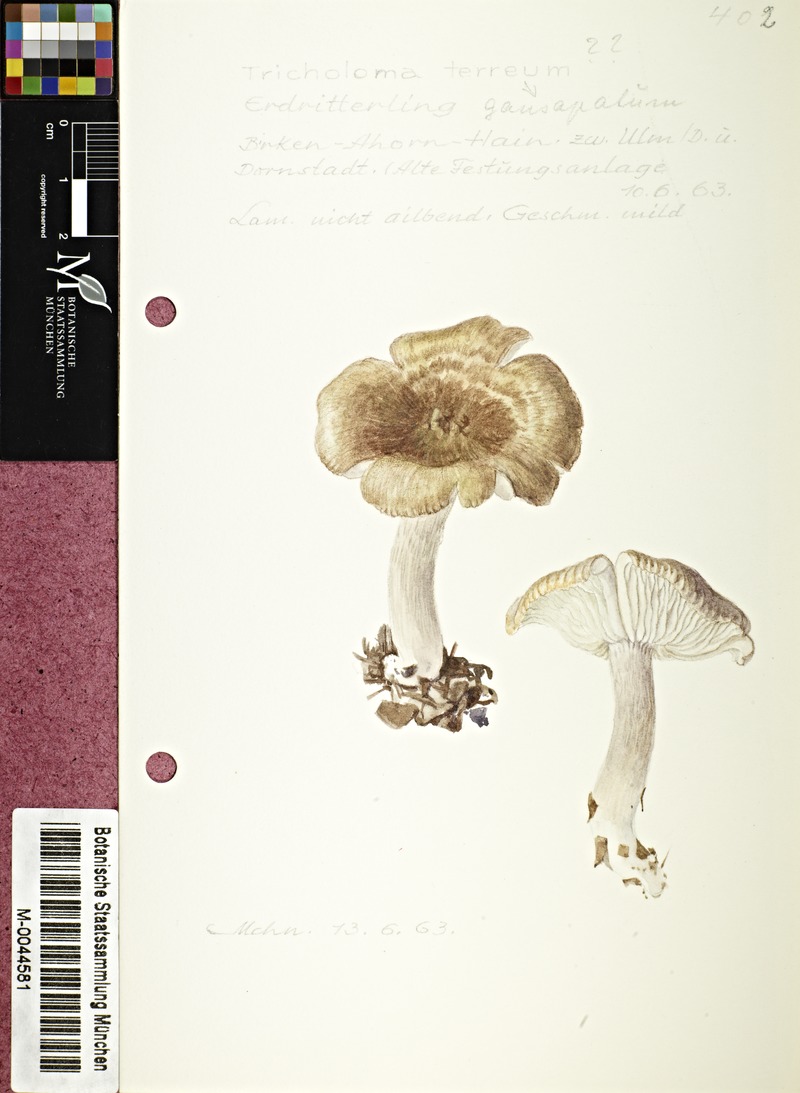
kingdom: Fungi
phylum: Basidiomycota
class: Agaricomycetes
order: Agaricales
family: Tricholomataceae
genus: Tricholoma
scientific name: Tricholoma terreum
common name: Grey knight
